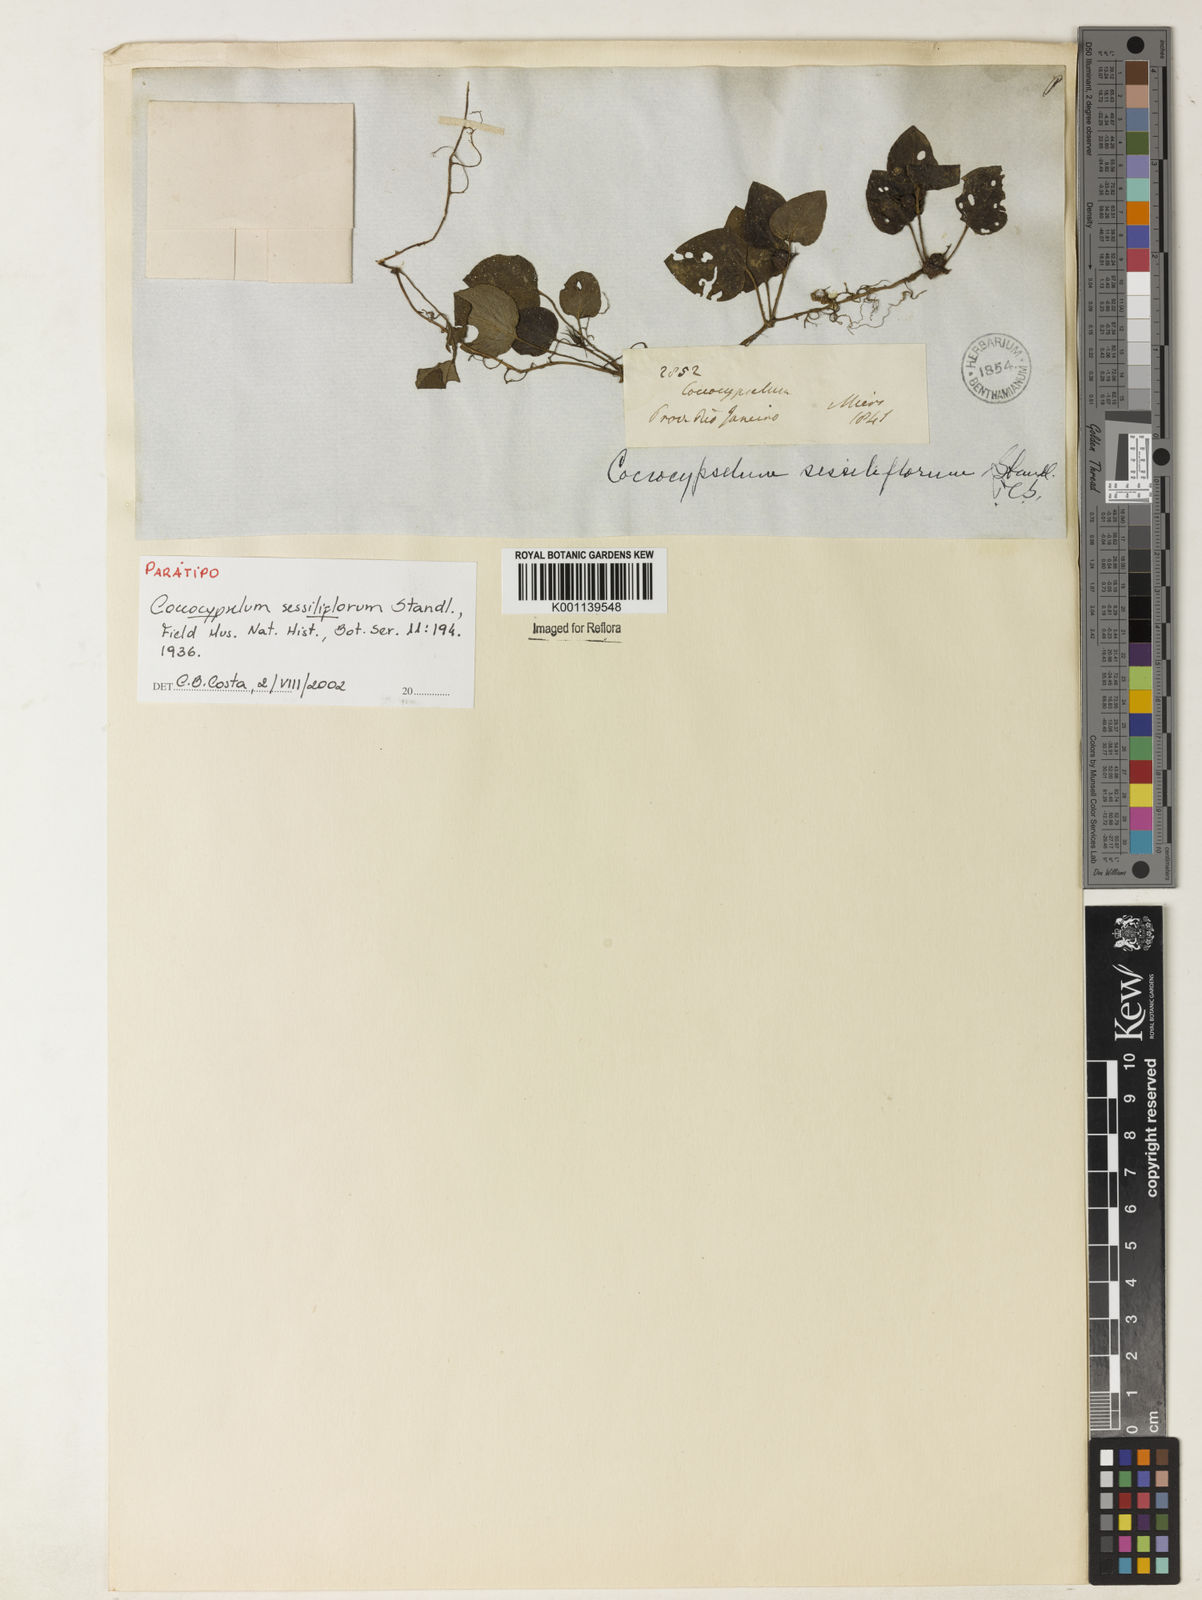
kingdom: Plantae
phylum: Tracheophyta
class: Magnoliopsida
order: Gentianales
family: Rubiaceae
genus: Coccocypselum
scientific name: Coccocypselum geophiloides
